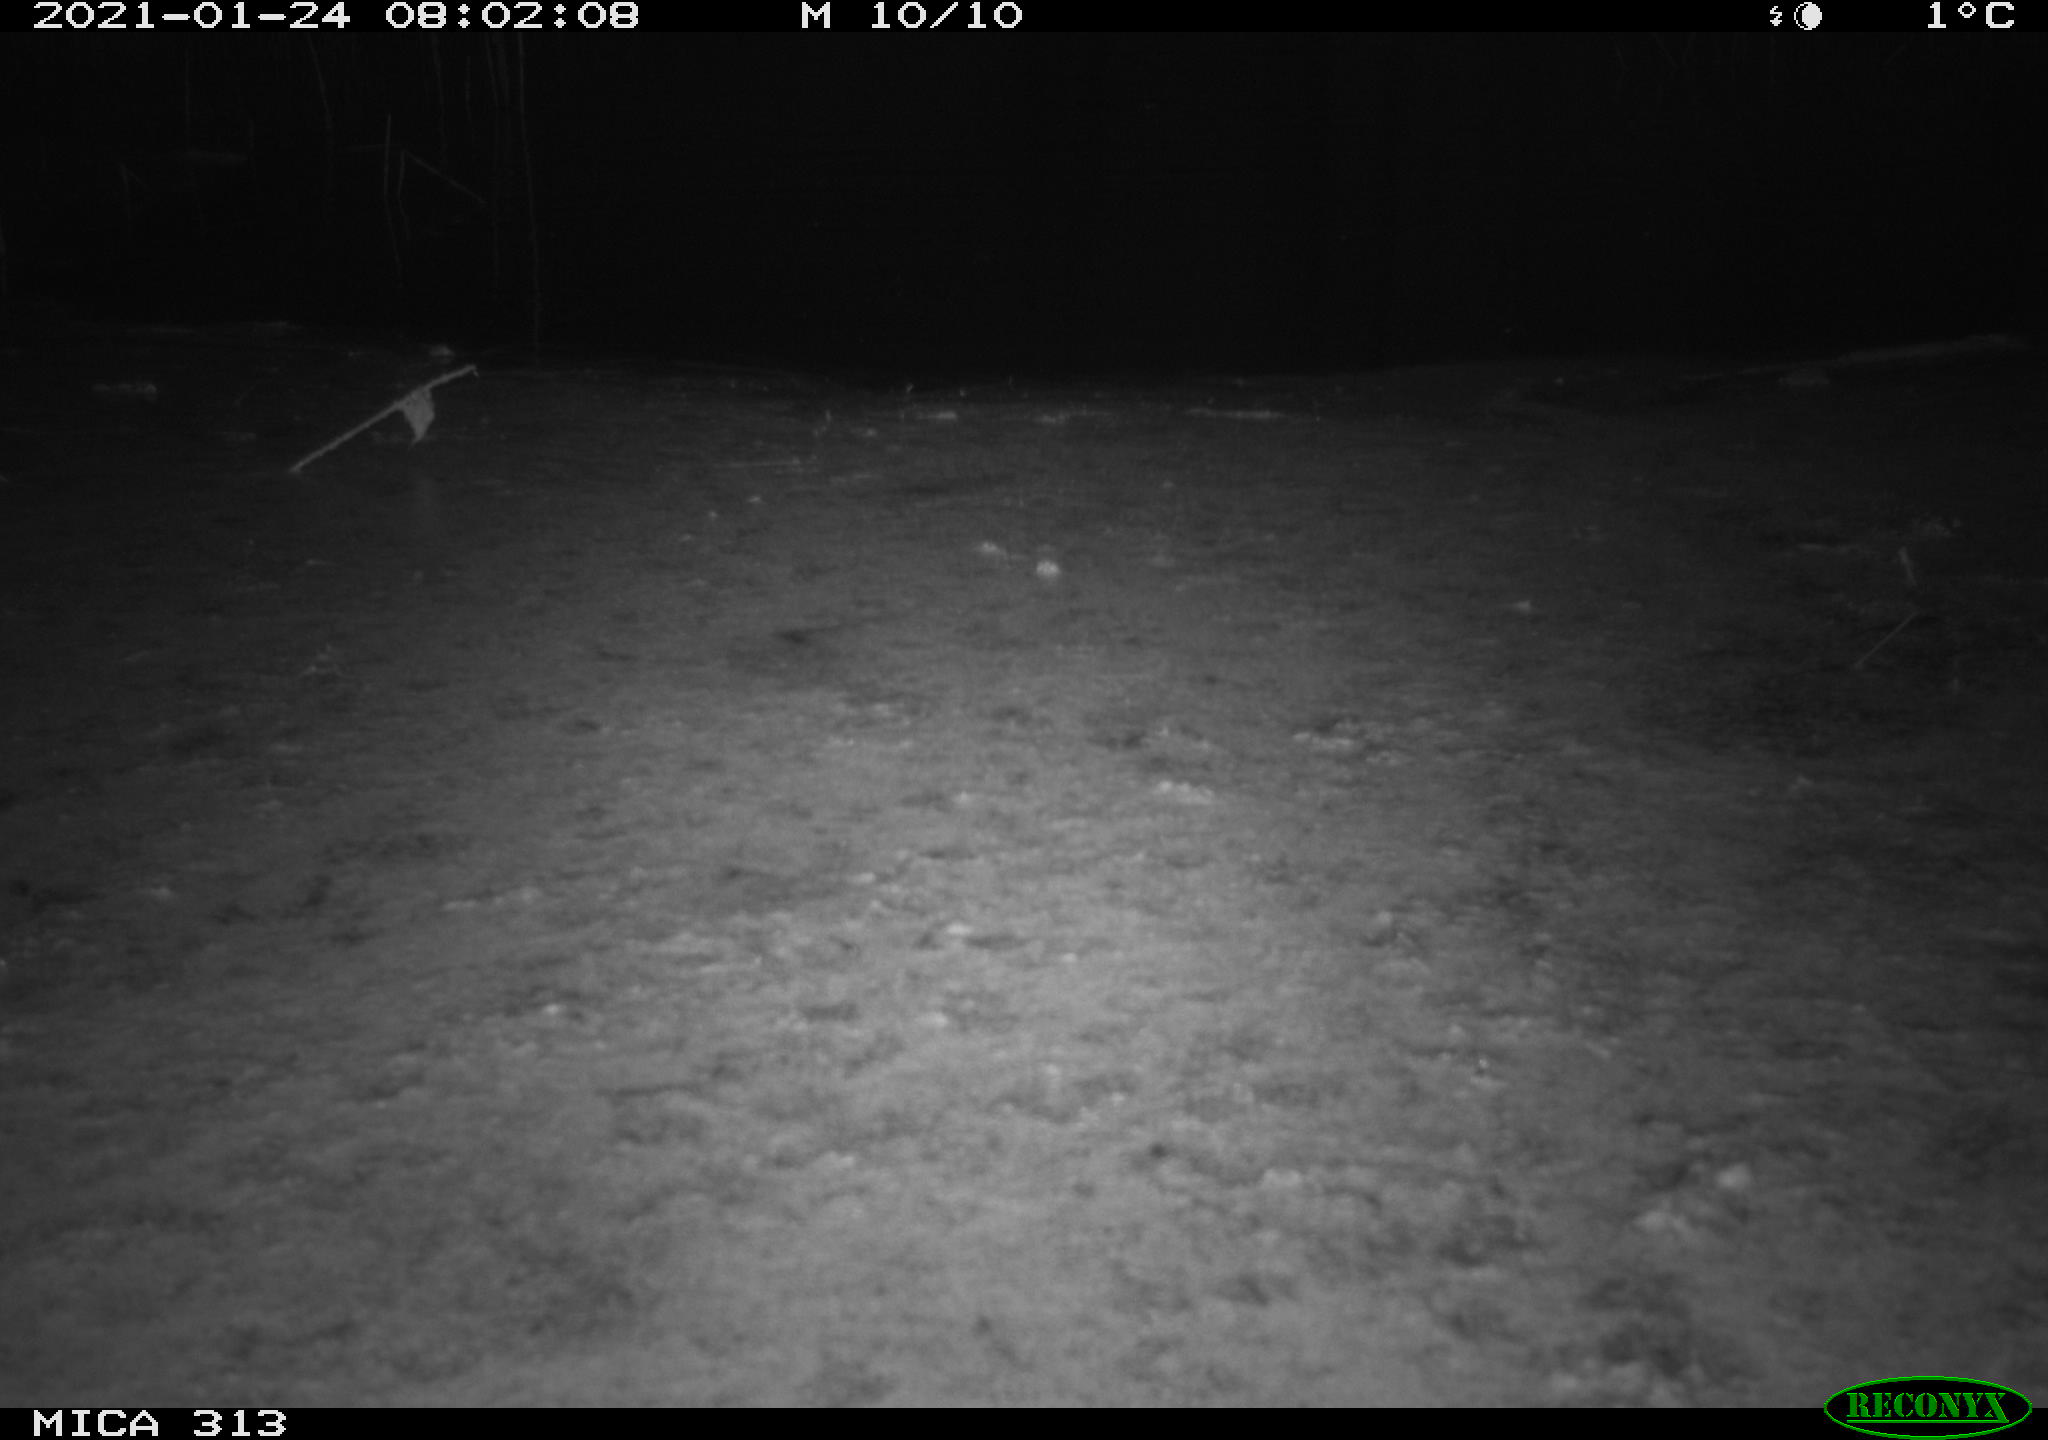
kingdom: Animalia
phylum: Chordata
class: Aves
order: Gruiformes
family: Rallidae
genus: Gallinula
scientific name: Gallinula chloropus
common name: Common moorhen
